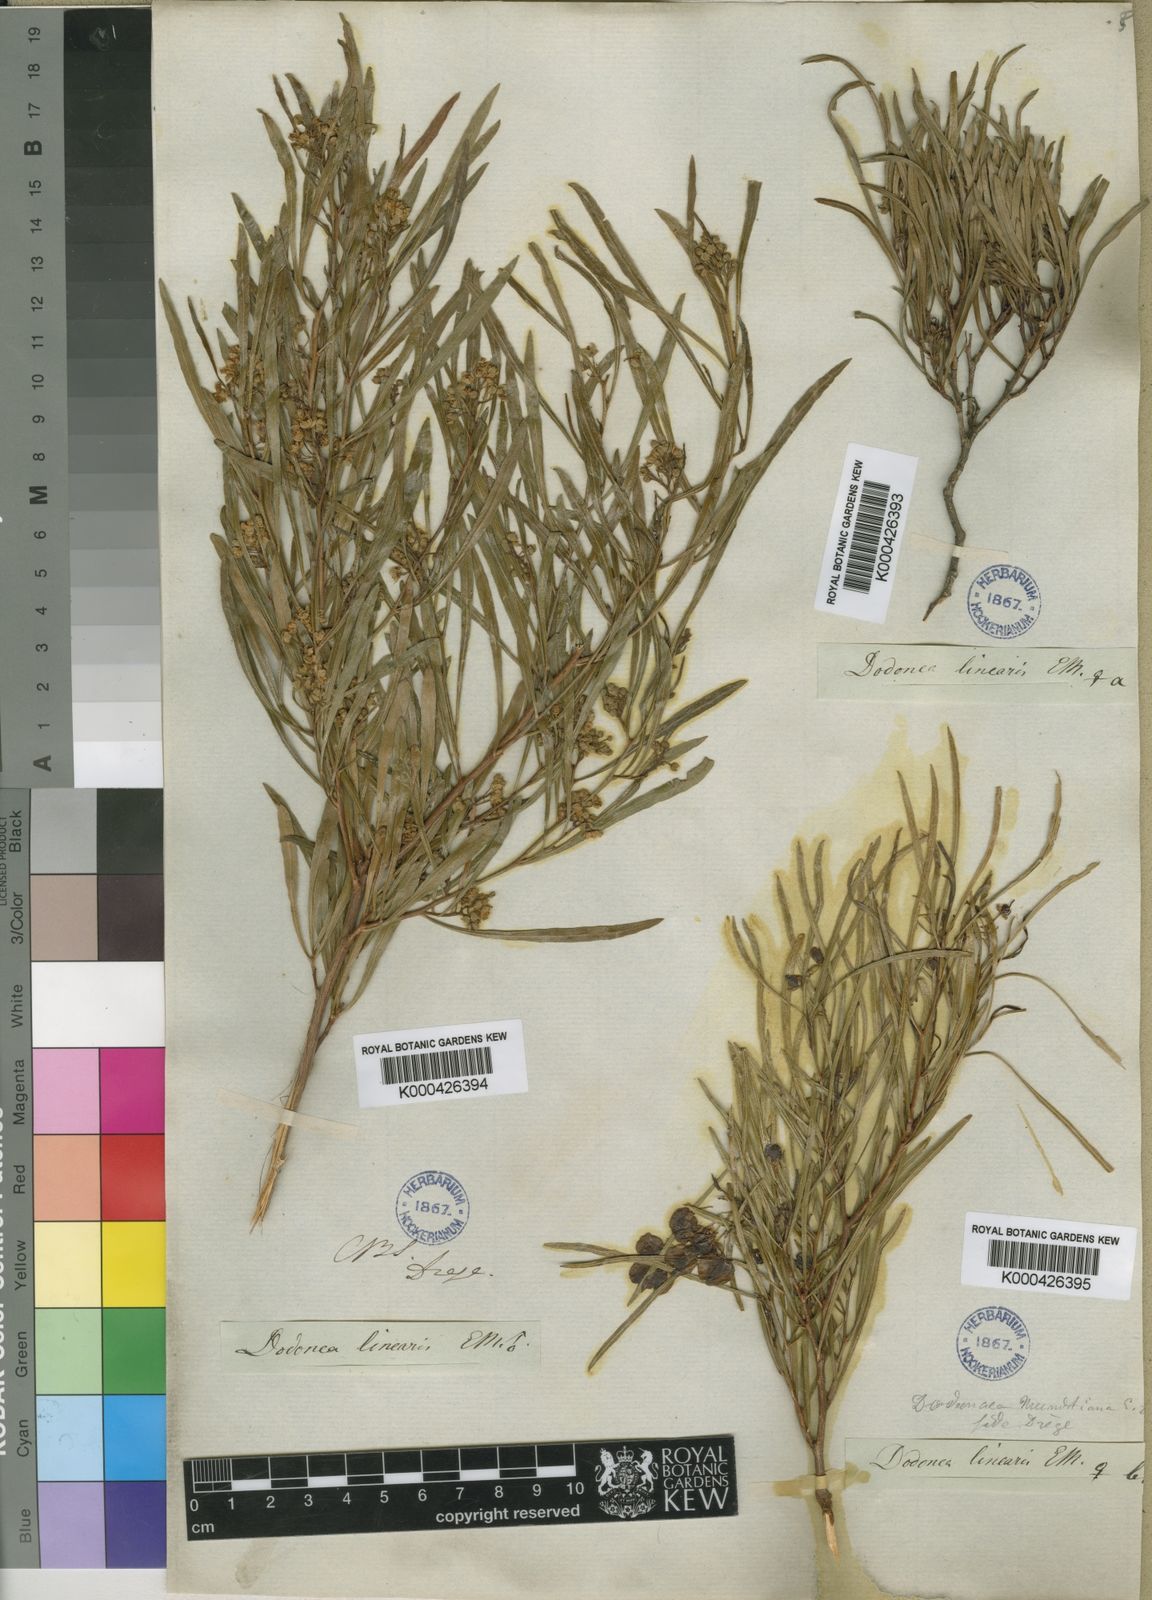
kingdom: Plantae
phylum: Tracheophyta
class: Magnoliopsida
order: Sapindales
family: Sapindaceae
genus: Dodonaea
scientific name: Dodonaea
